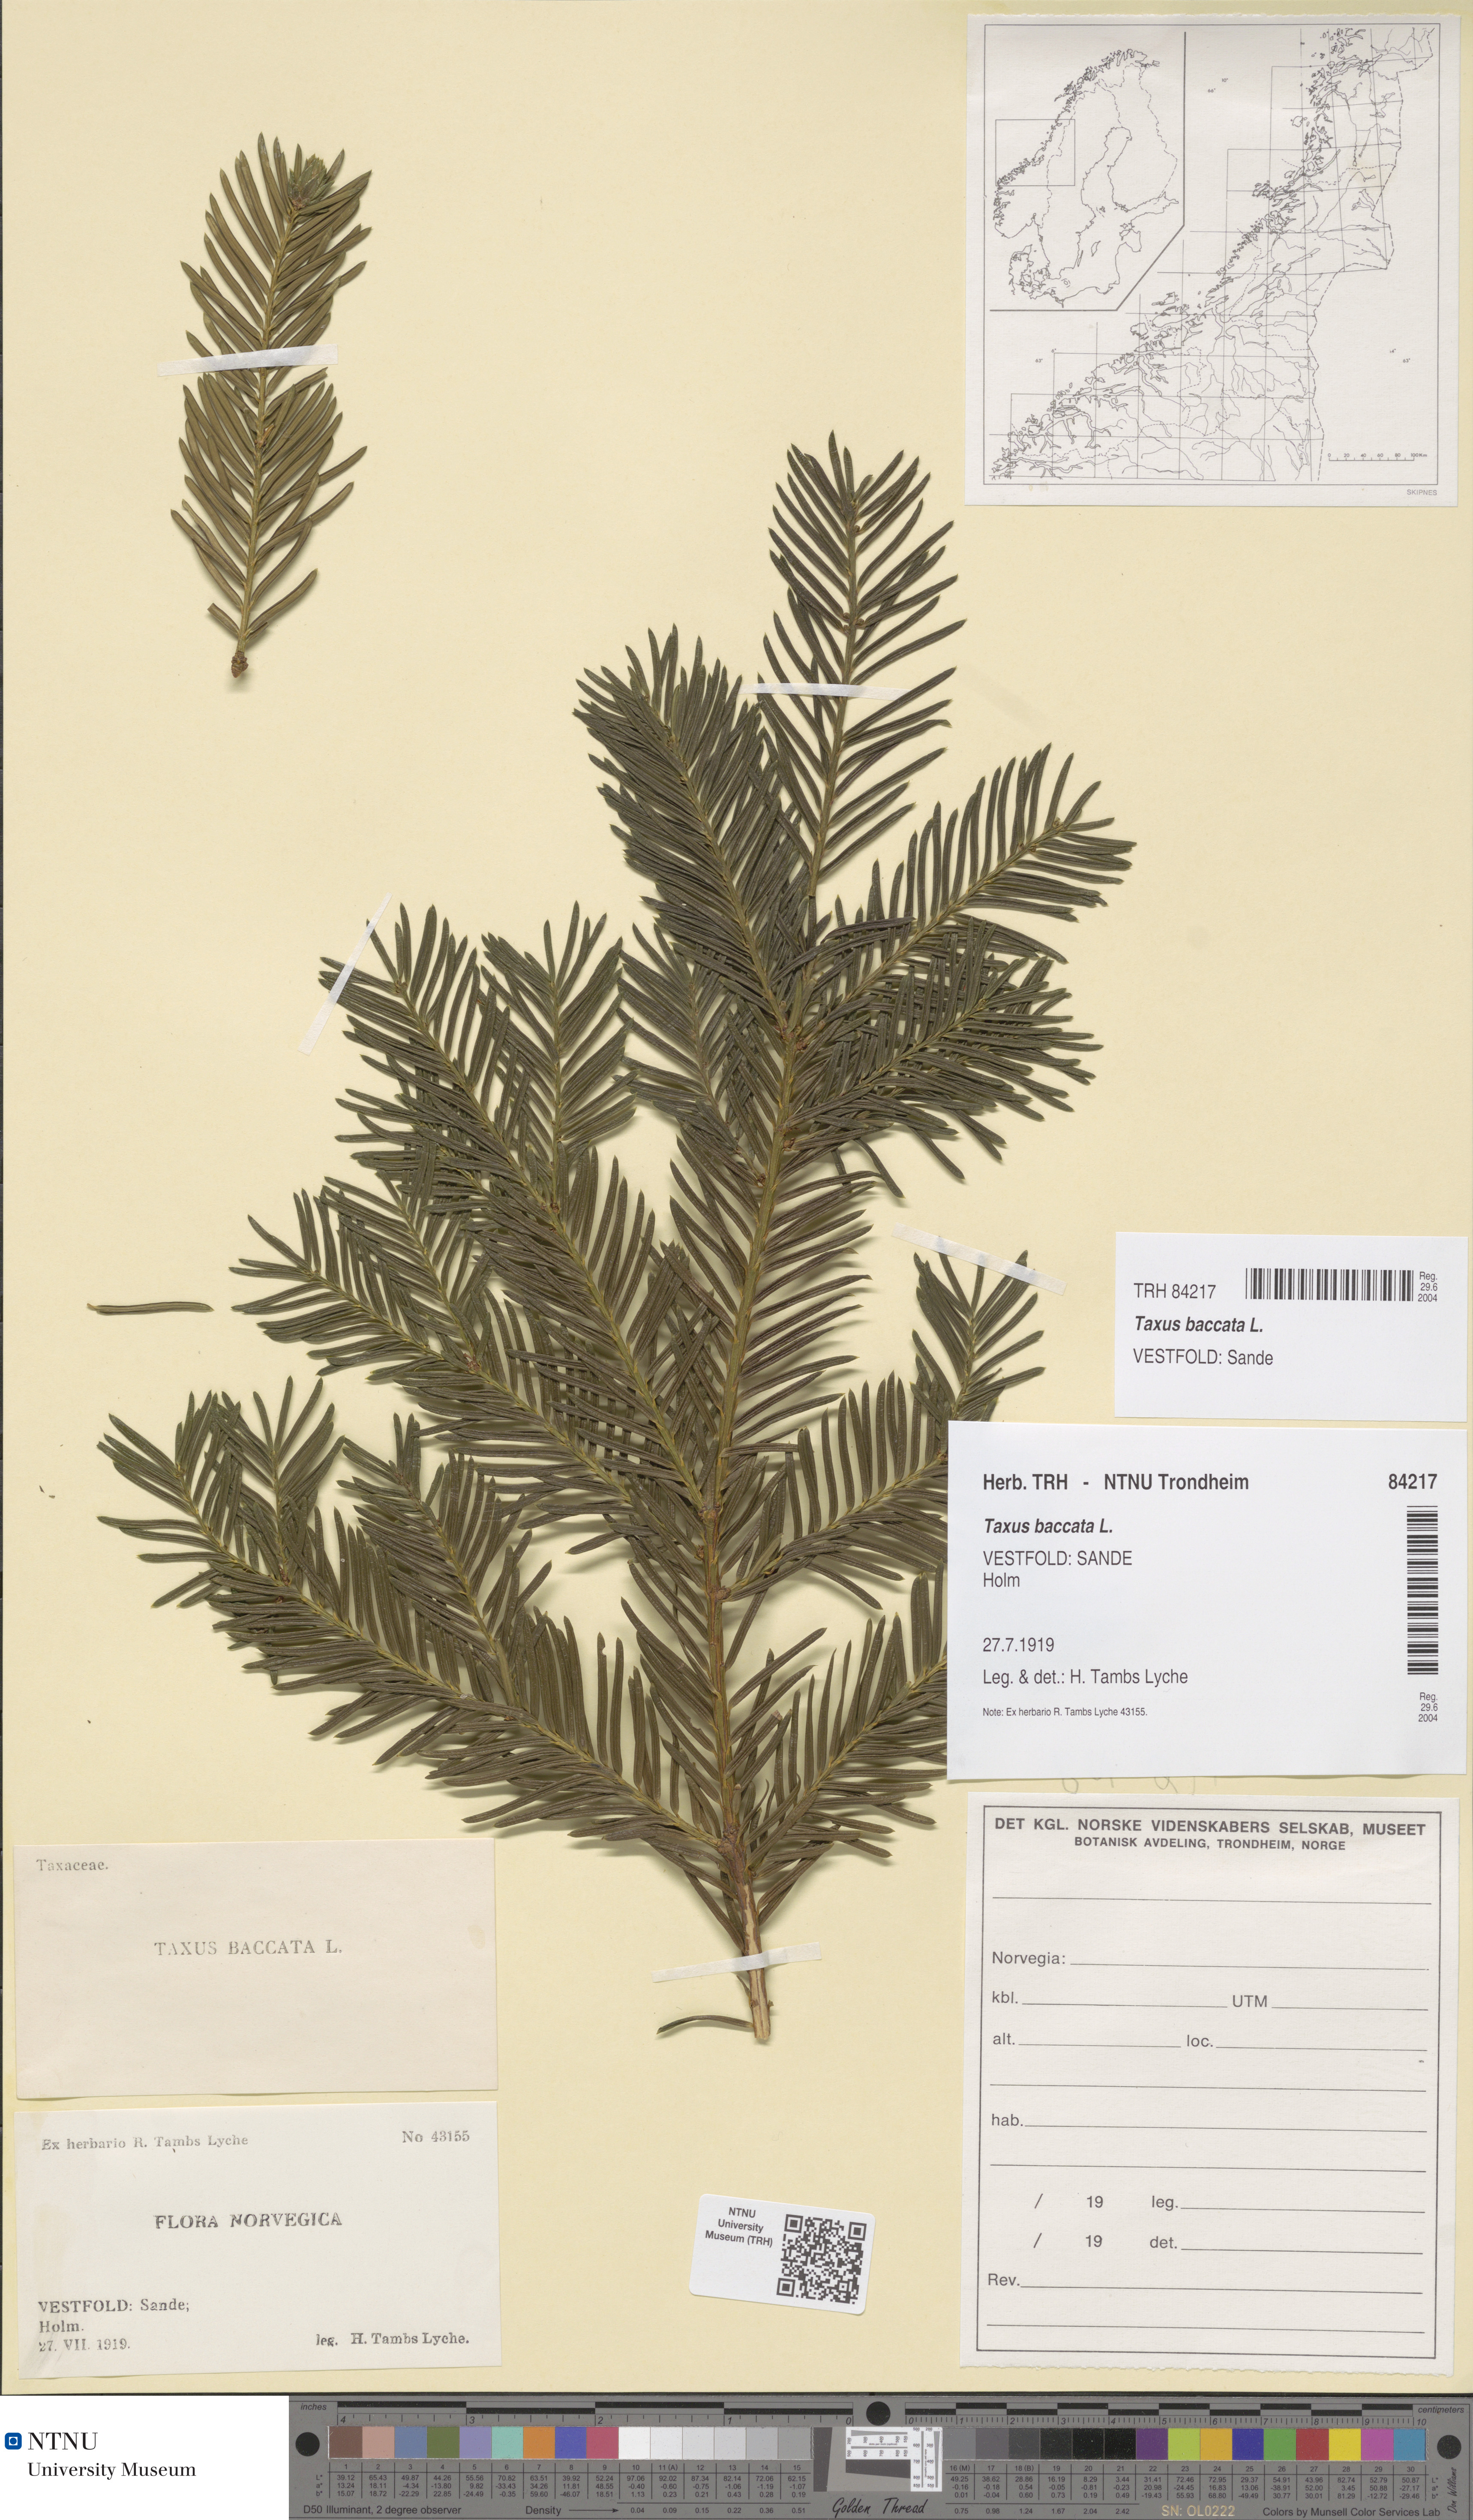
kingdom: Plantae
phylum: Tracheophyta
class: Pinopsida
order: Pinales
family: Taxaceae
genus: Taxus
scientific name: Taxus baccata
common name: Yew
